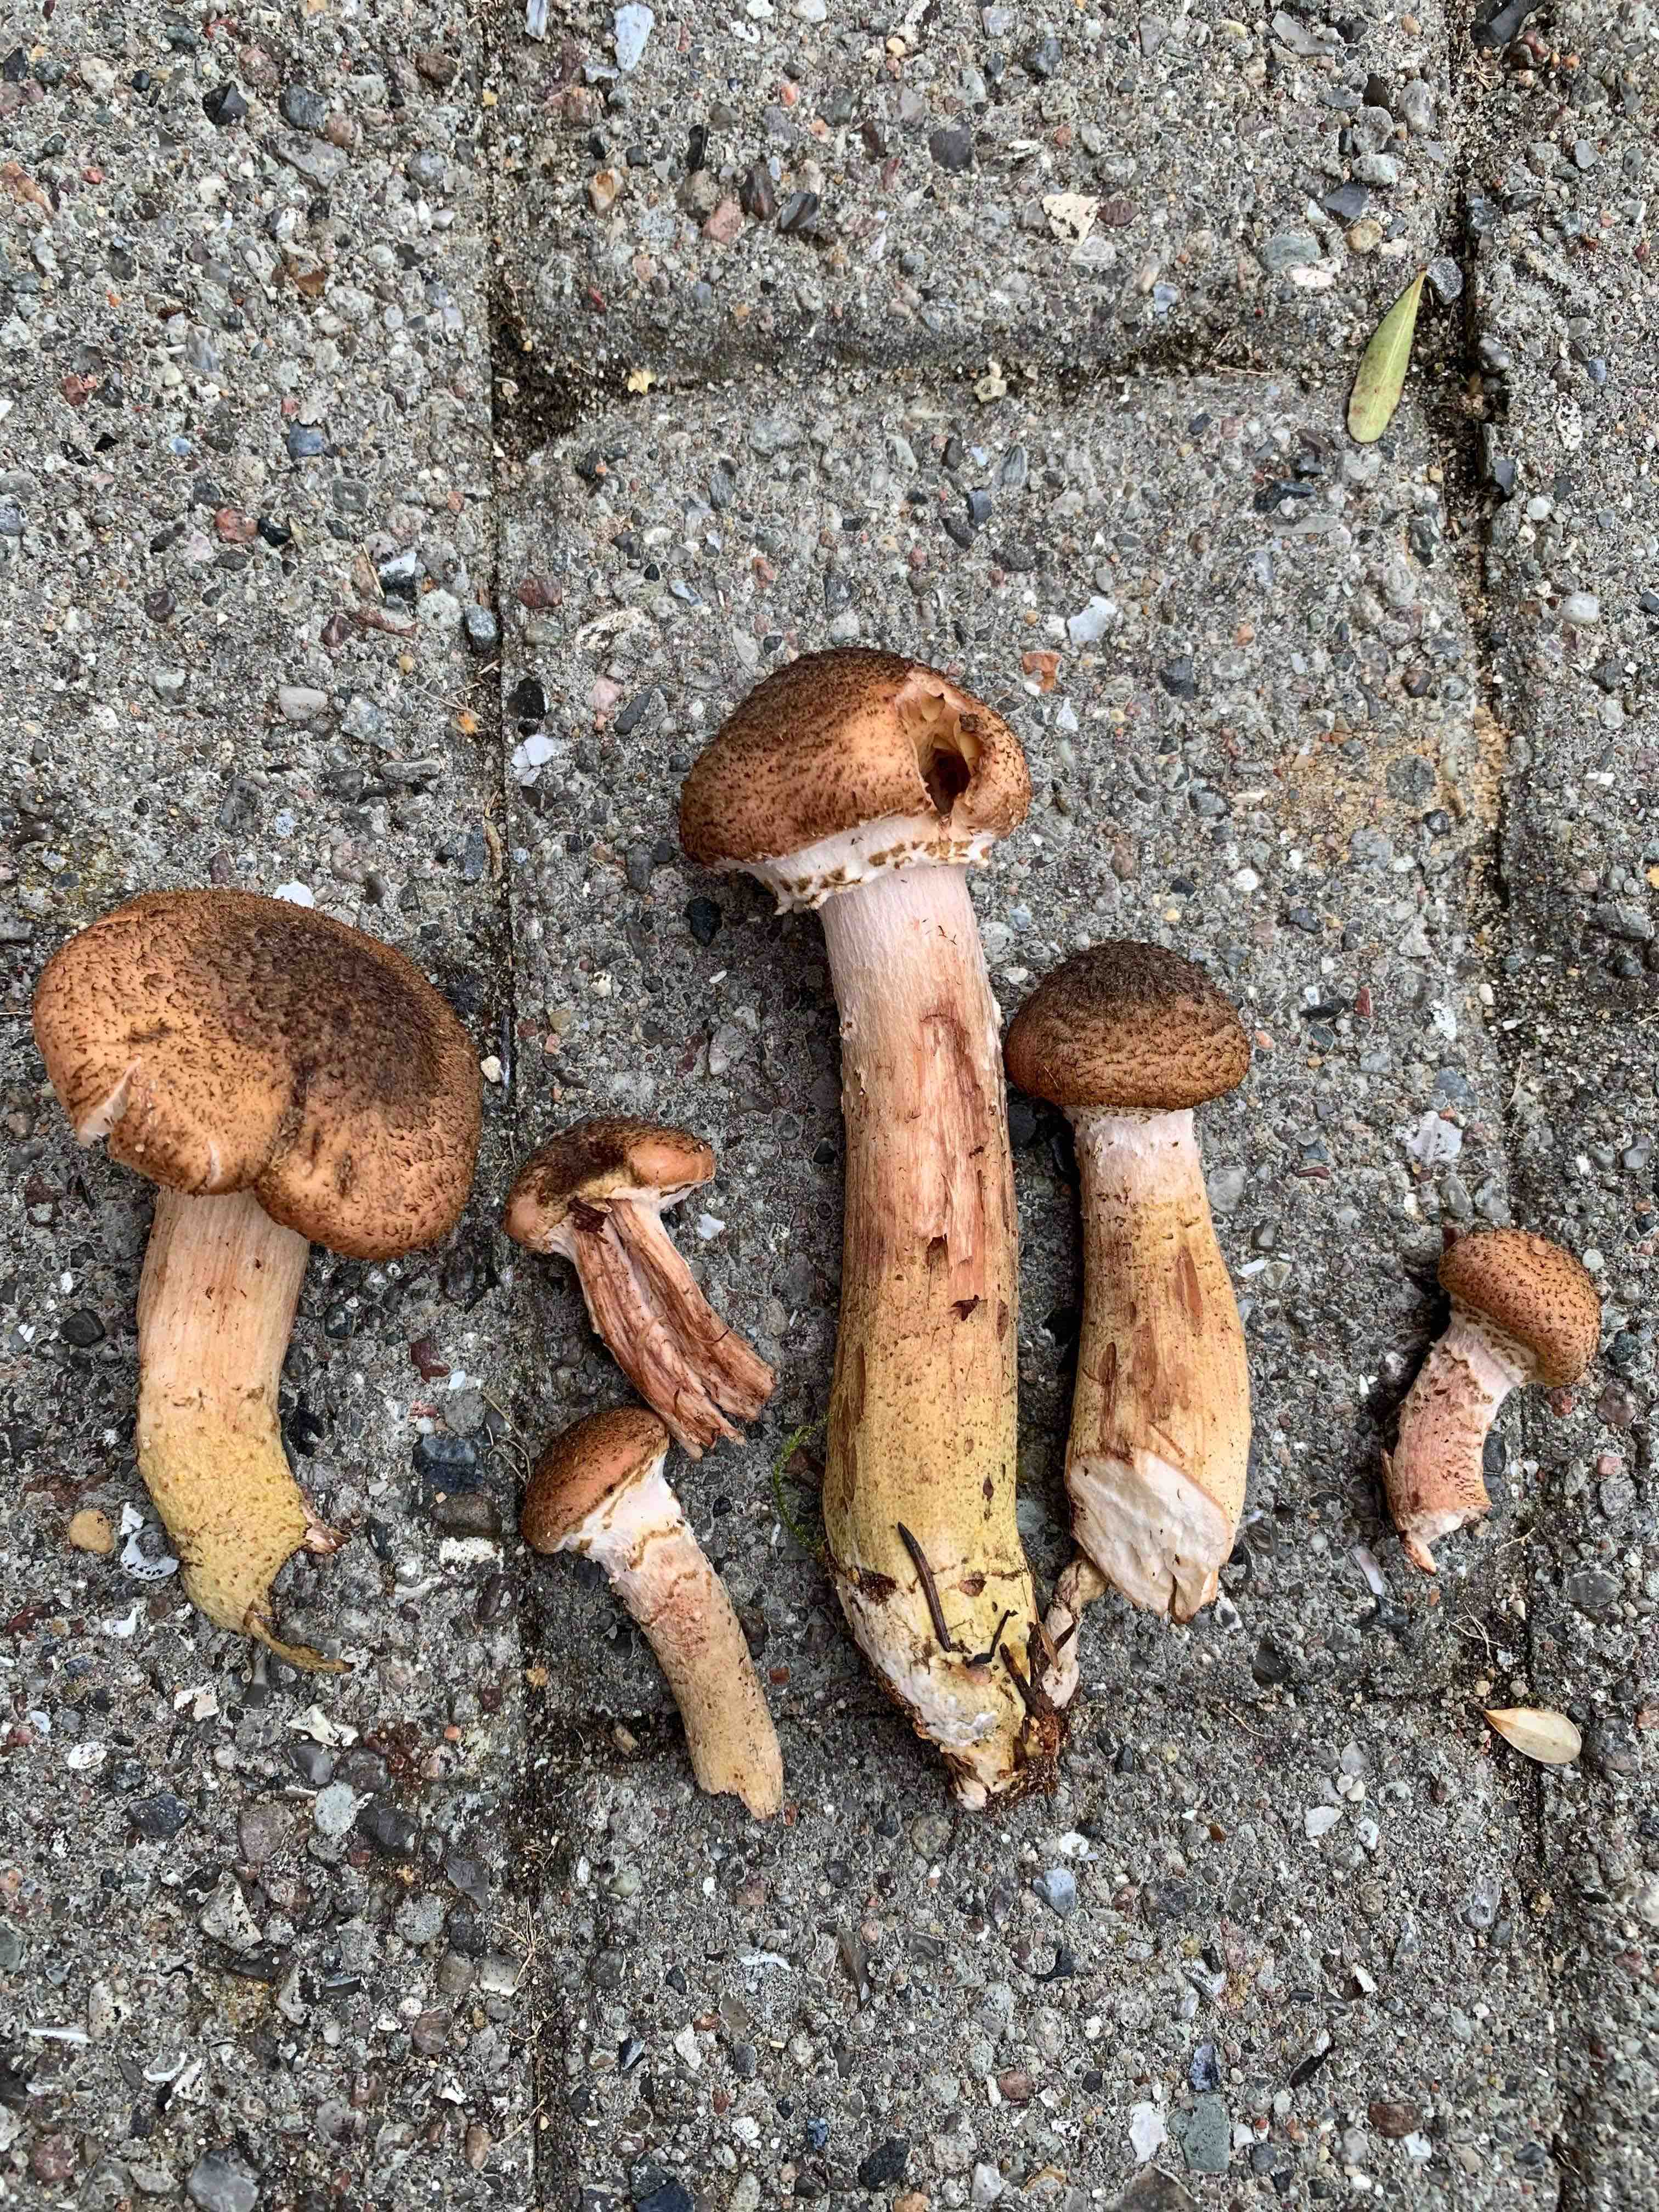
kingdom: Fungi
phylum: Basidiomycota
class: Agaricomycetes
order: Agaricales
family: Physalacriaceae
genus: Armillaria
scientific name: Armillaria ostoyae
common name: mørk honningsvamp
